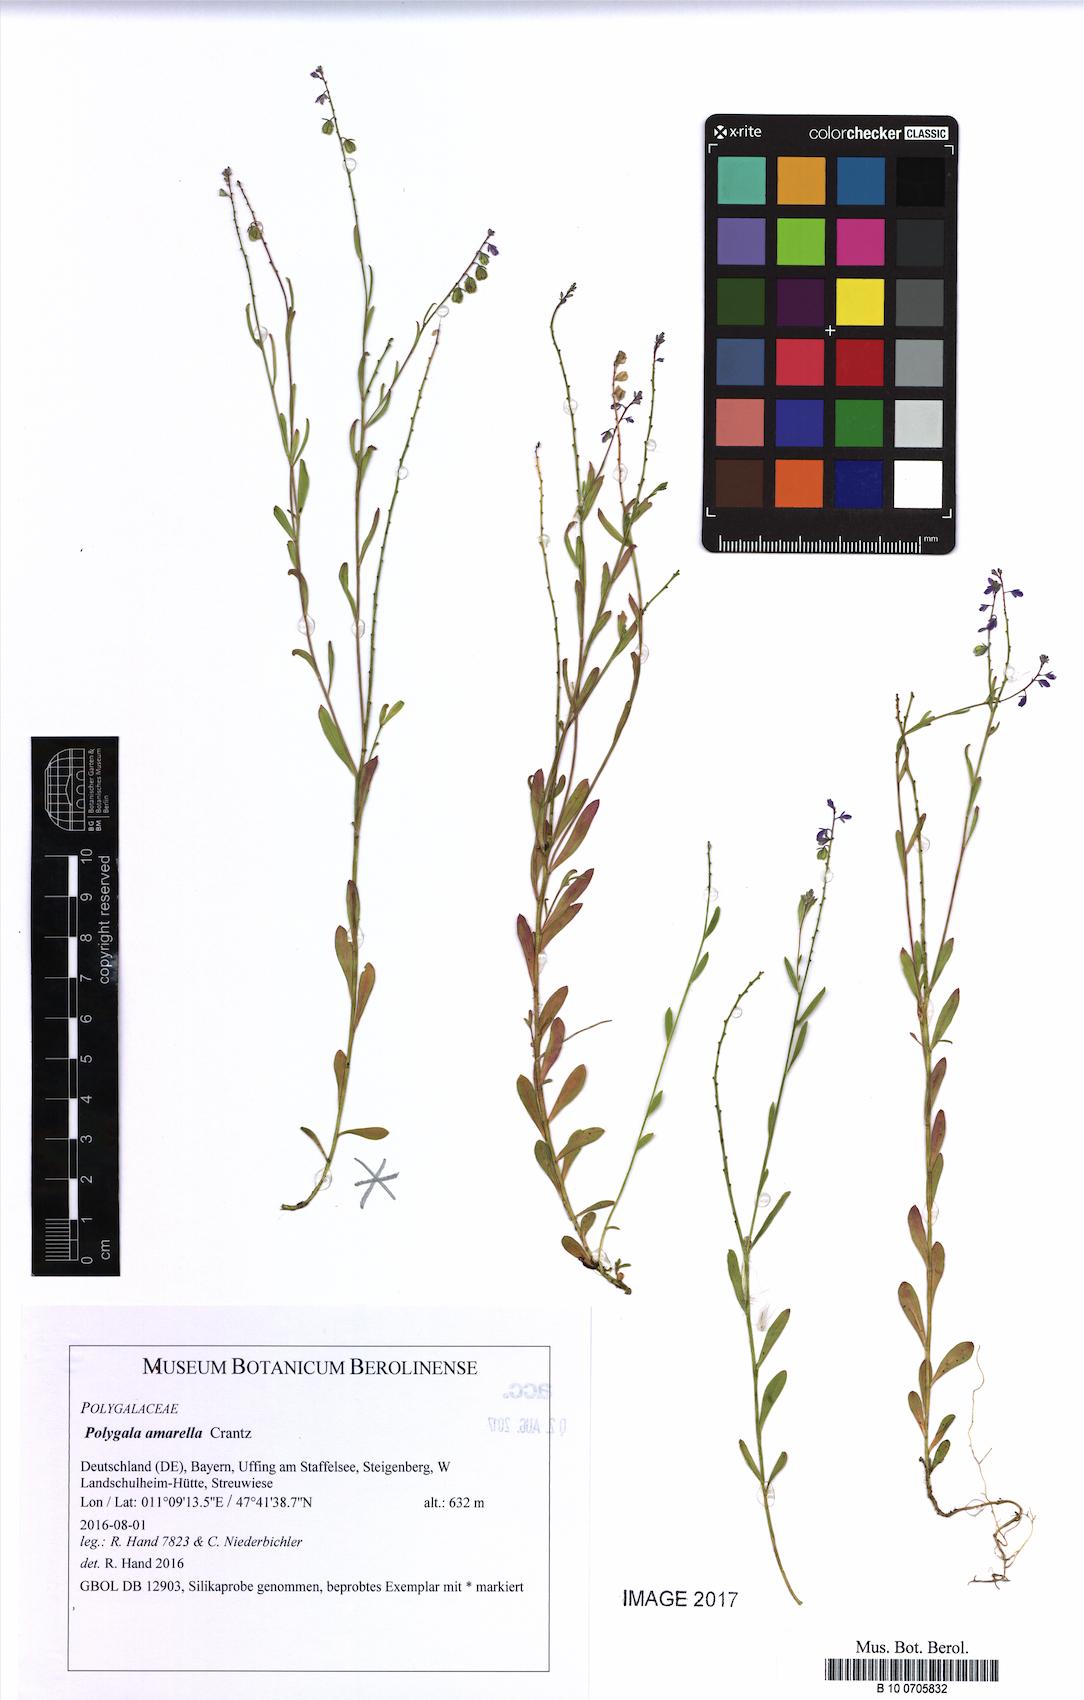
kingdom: Plantae
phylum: Tracheophyta
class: Magnoliopsida
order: Fabales
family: Polygalaceae
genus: Polygala
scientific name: Polygala amarella
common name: Dwarf milkwort
